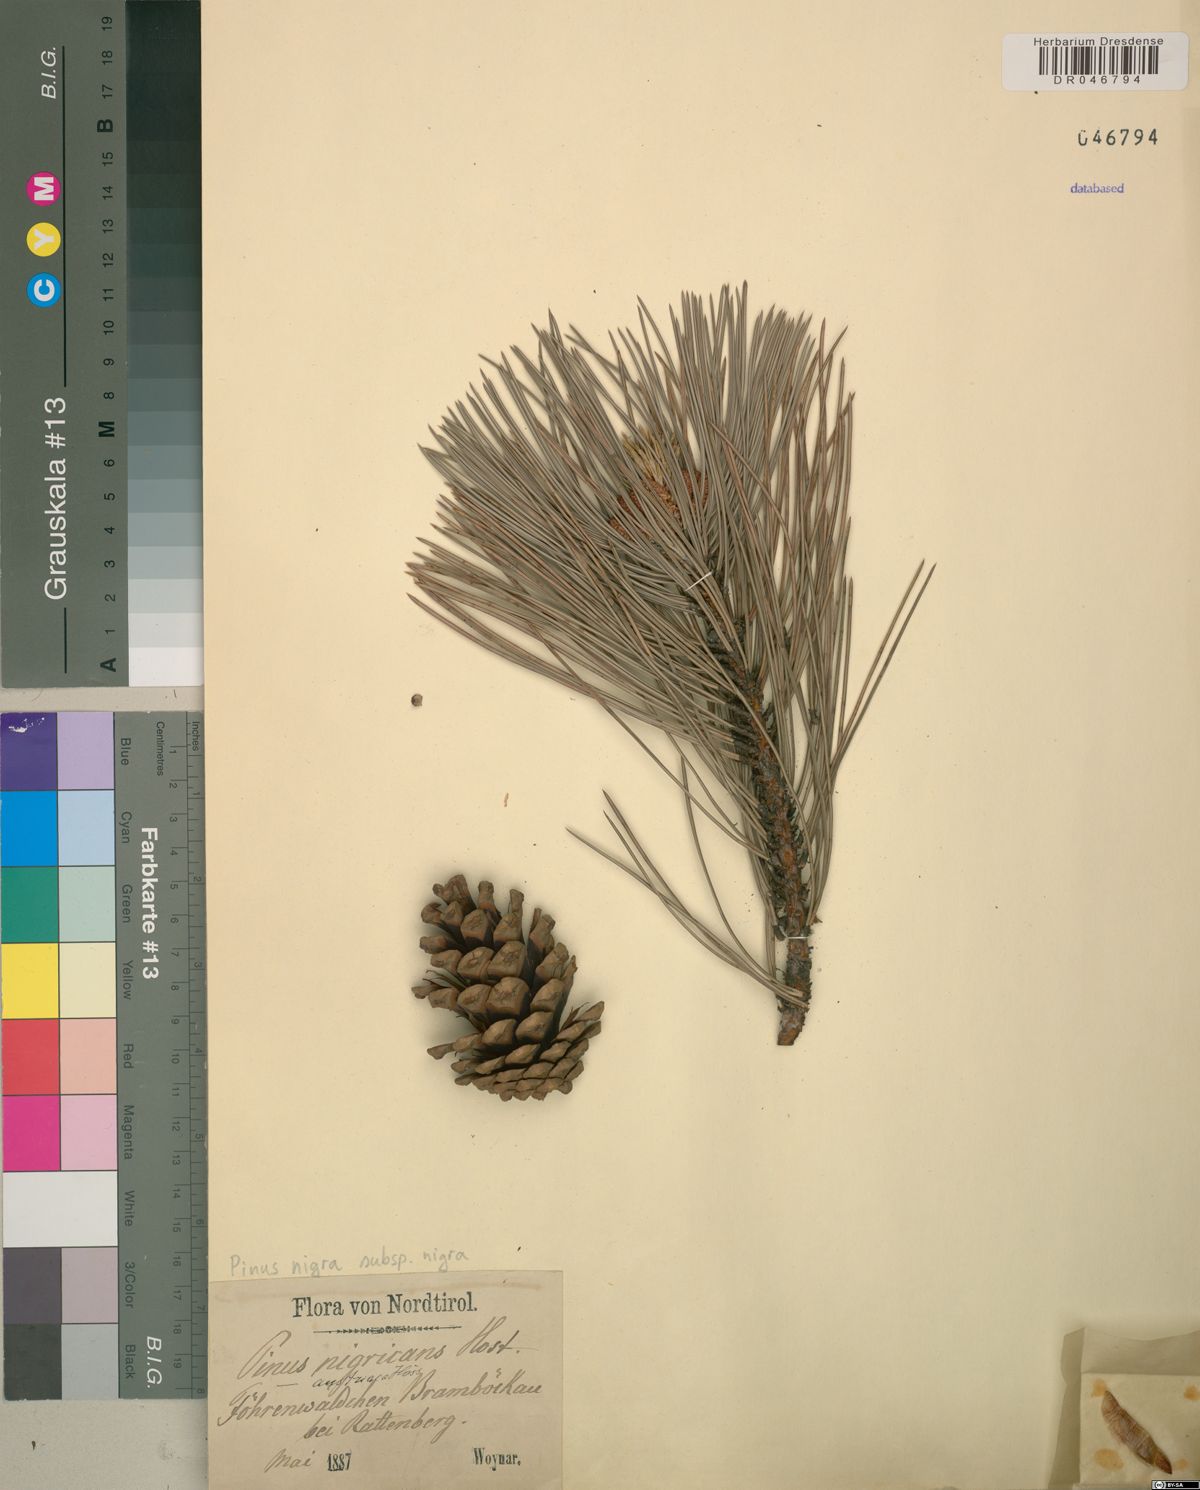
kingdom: Plantae
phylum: Tracheophyta
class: Pinopsida
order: Pinales
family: Pinaceae
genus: Pinus
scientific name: Pinus nigra
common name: Austrian pine
